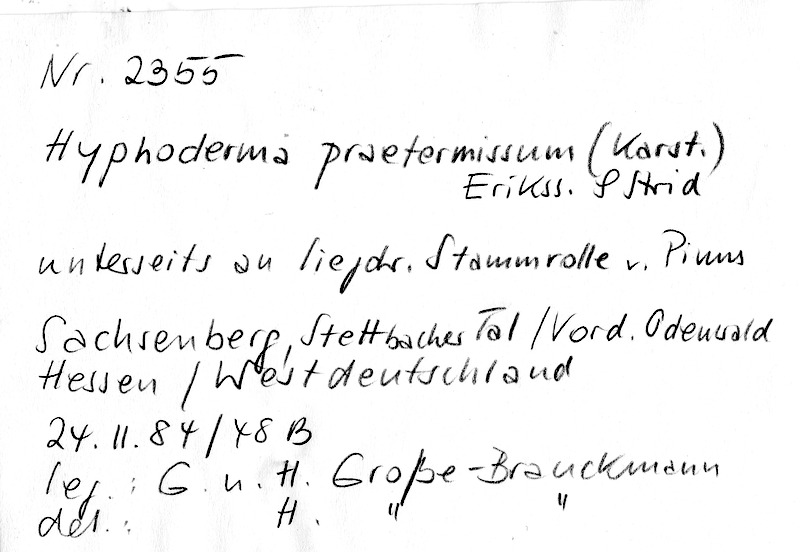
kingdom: Plantae
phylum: Tracheophyta
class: Pinopsida
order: Pinales
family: Pinaceae
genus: Pinus
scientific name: Pinus
